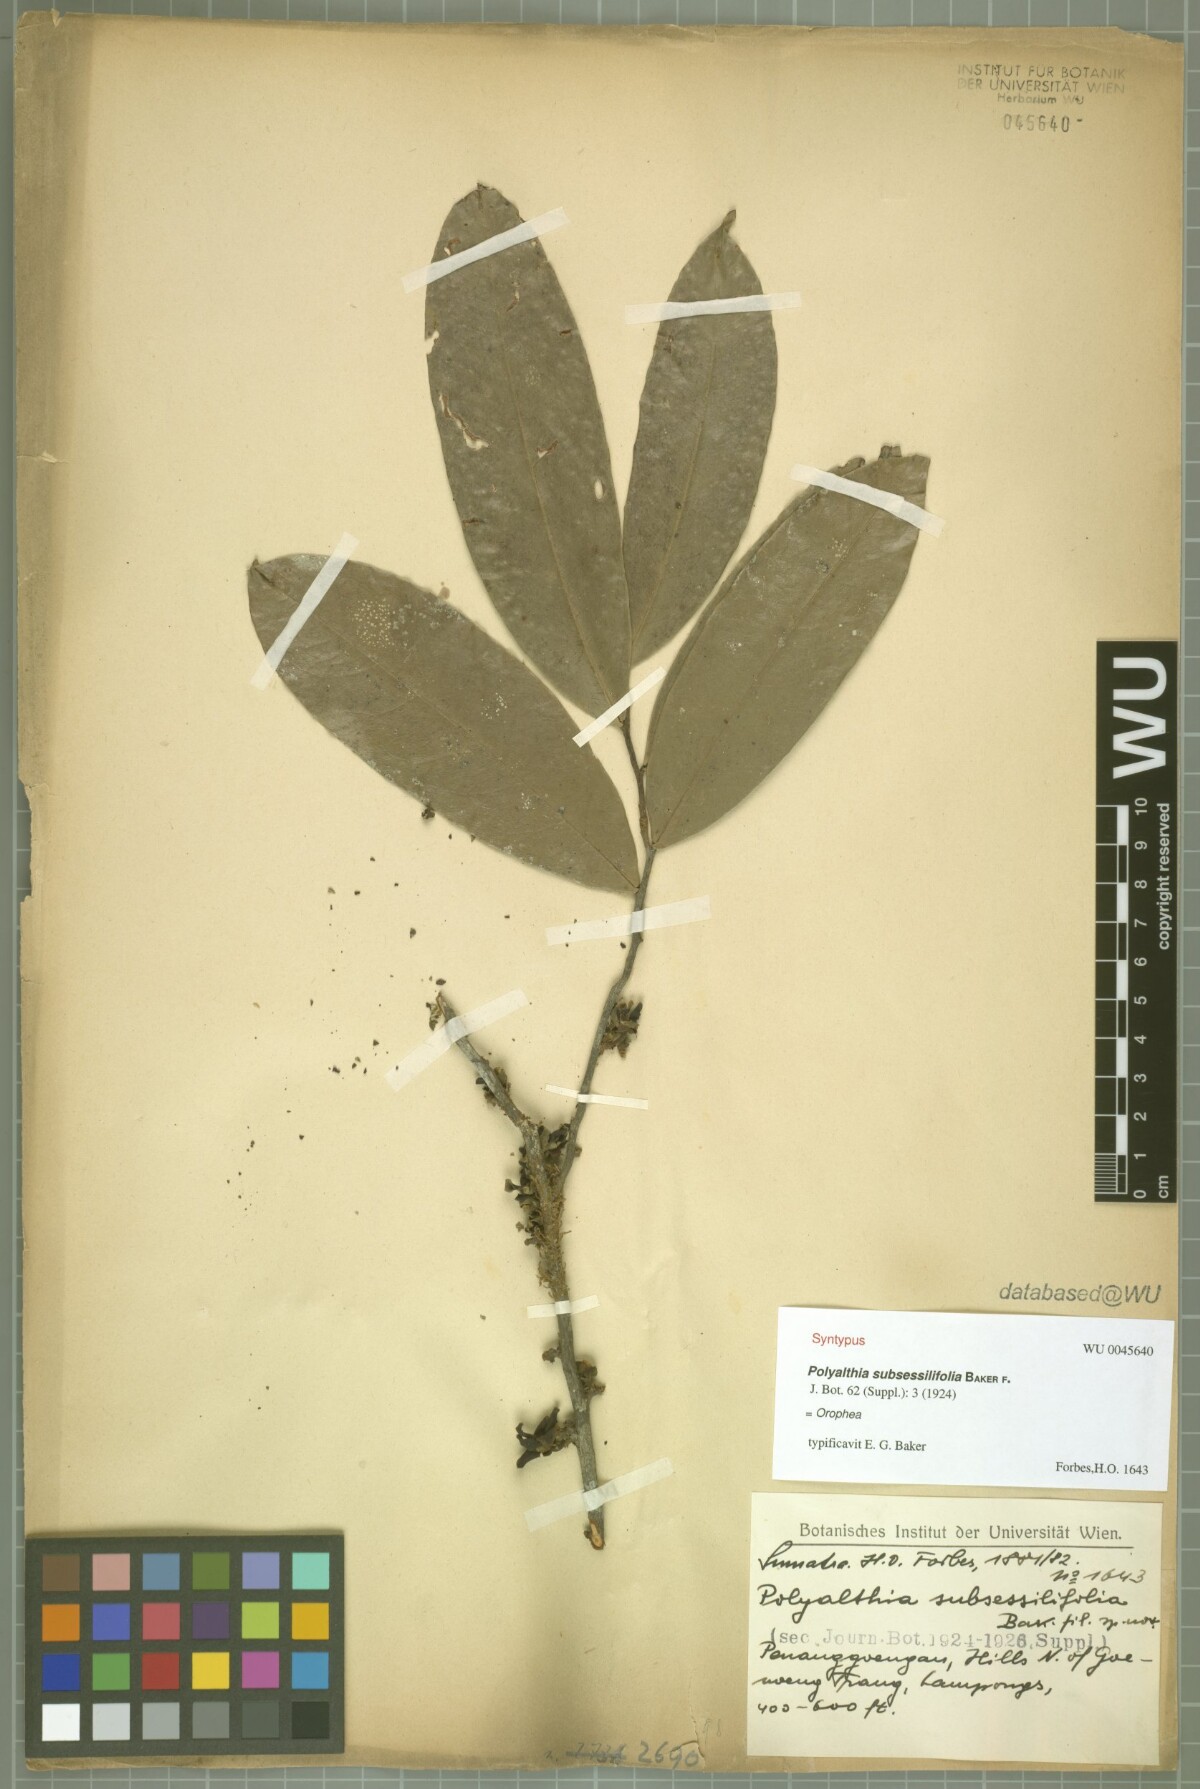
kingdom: Plantae
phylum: Tracheophyta
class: Magnoliopsida
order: Magnoliales
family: Annonaceae
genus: Polyalthia
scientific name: Polyalthia obliqua
